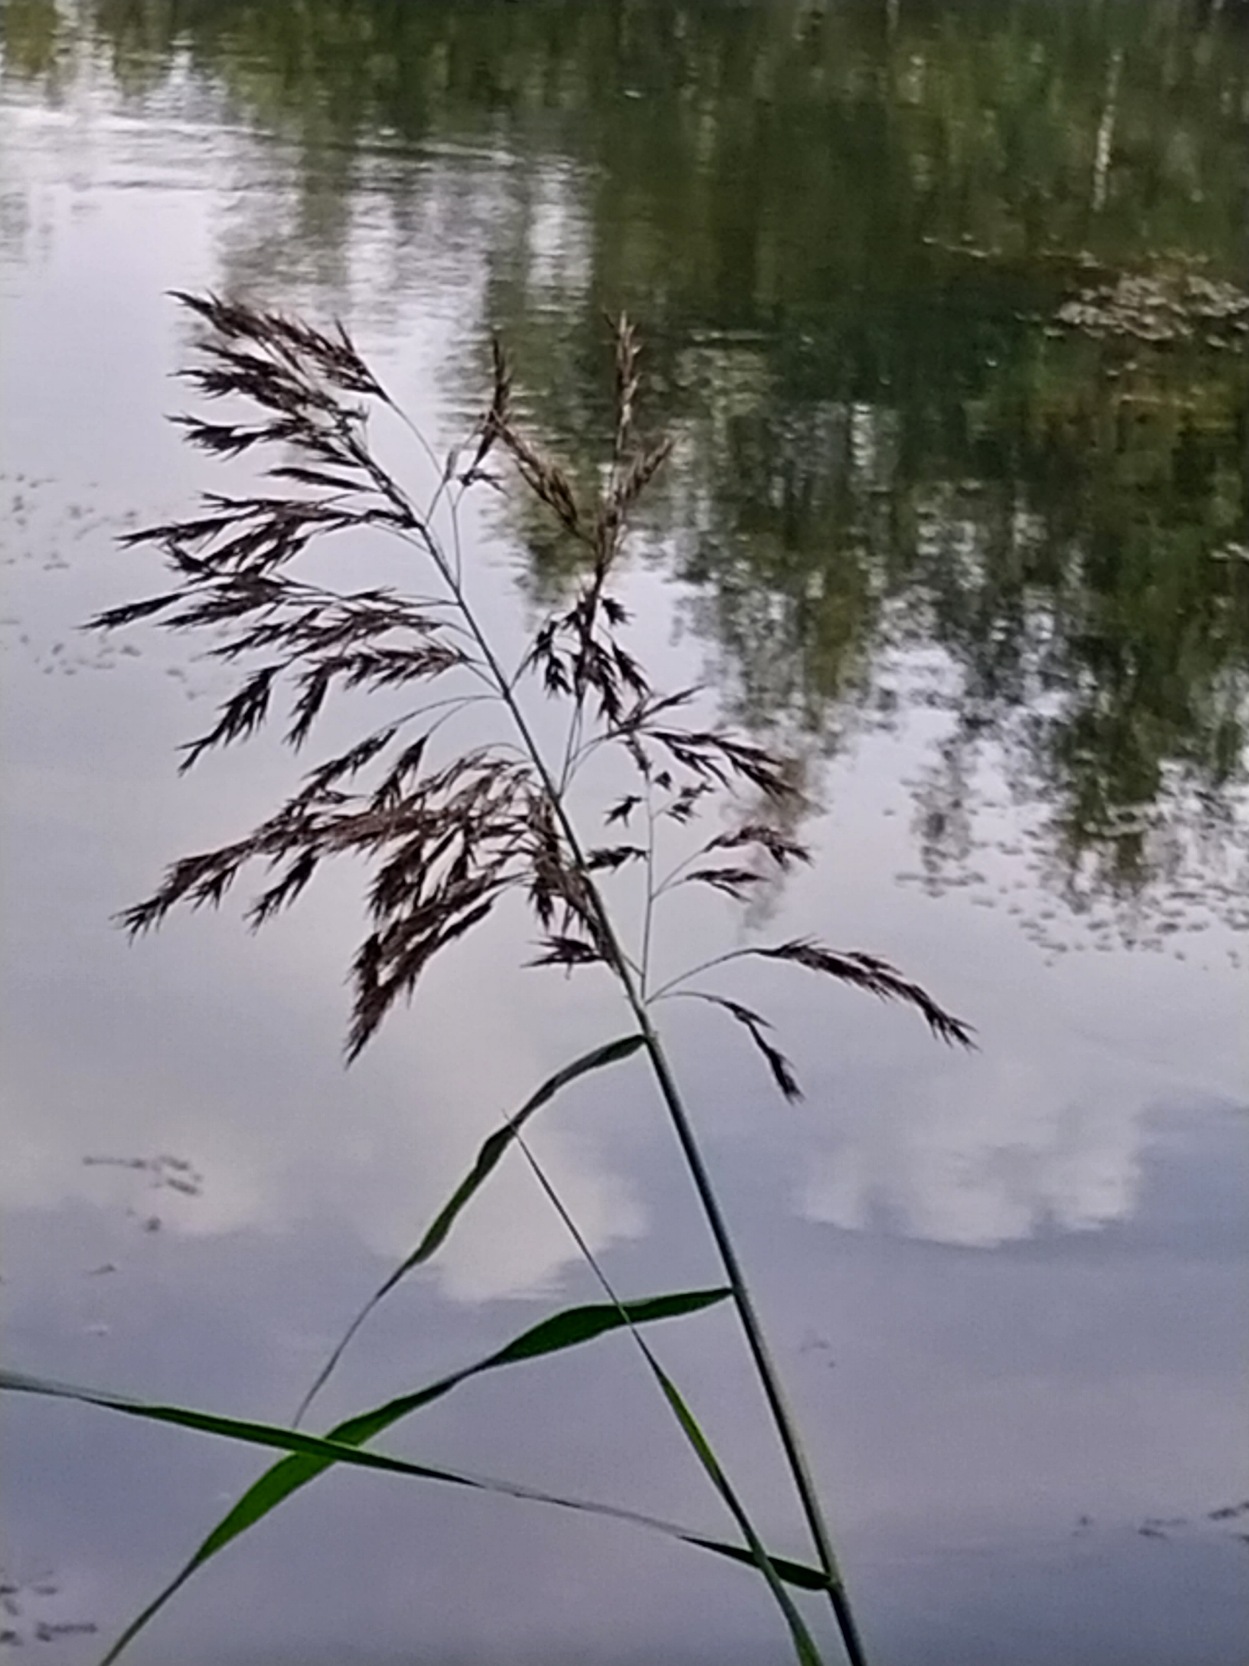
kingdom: Plantae
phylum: Tracheophyta
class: Liliopsida
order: Poales
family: Poaceae
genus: Phragmites
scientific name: Phragmites australis
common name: Tagrør
